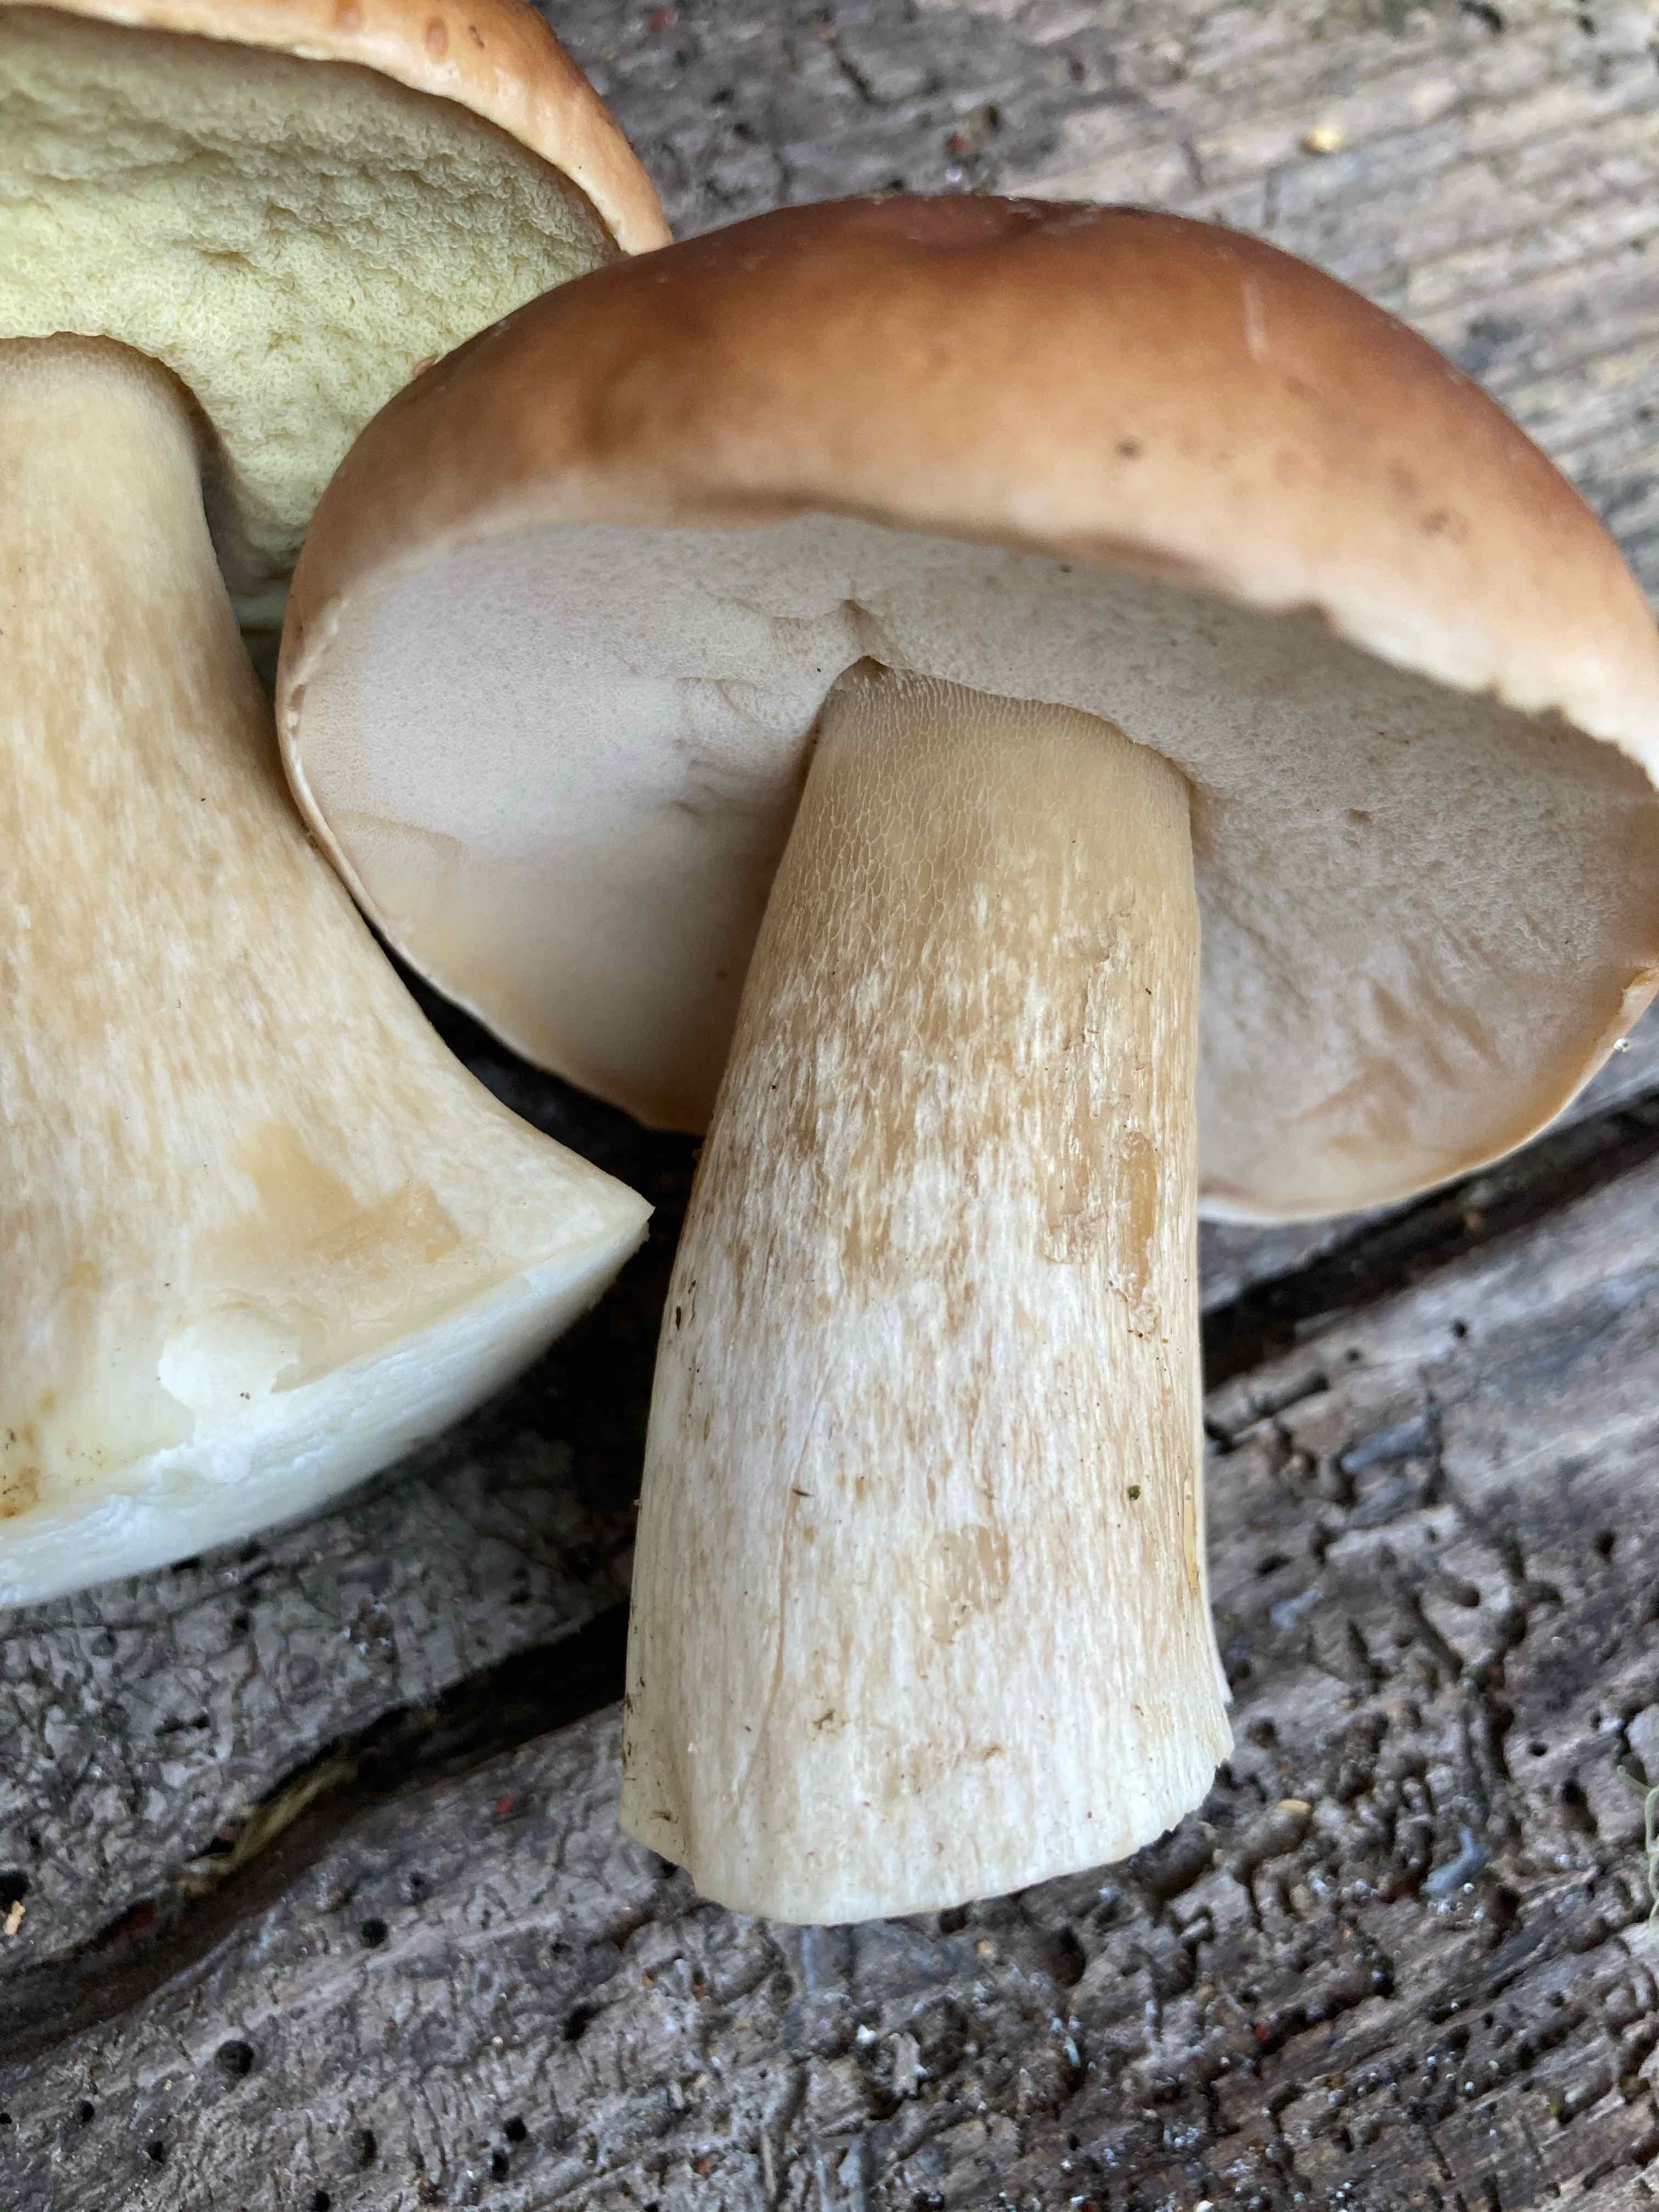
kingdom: Fungi
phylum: Basidiomycota
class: Agaricomycetes
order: Boletales
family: Boletaceae
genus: Boletus
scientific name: Boletus edulis
